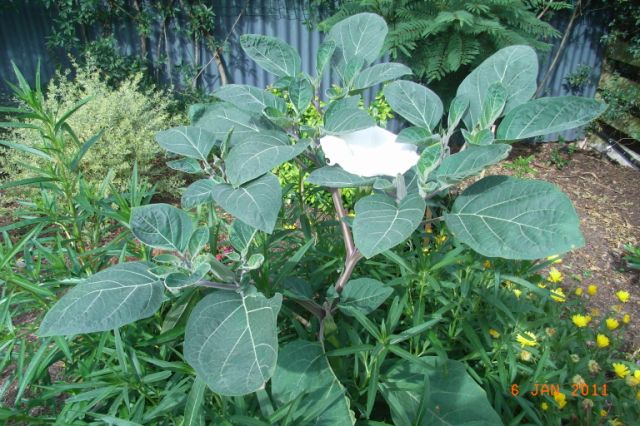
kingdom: Plantae
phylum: Tracheophyta
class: Magnoliopsida
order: Solanales
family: Solanaceae
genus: Datura
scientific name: Datura innoxia
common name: Downy thorn-apple
